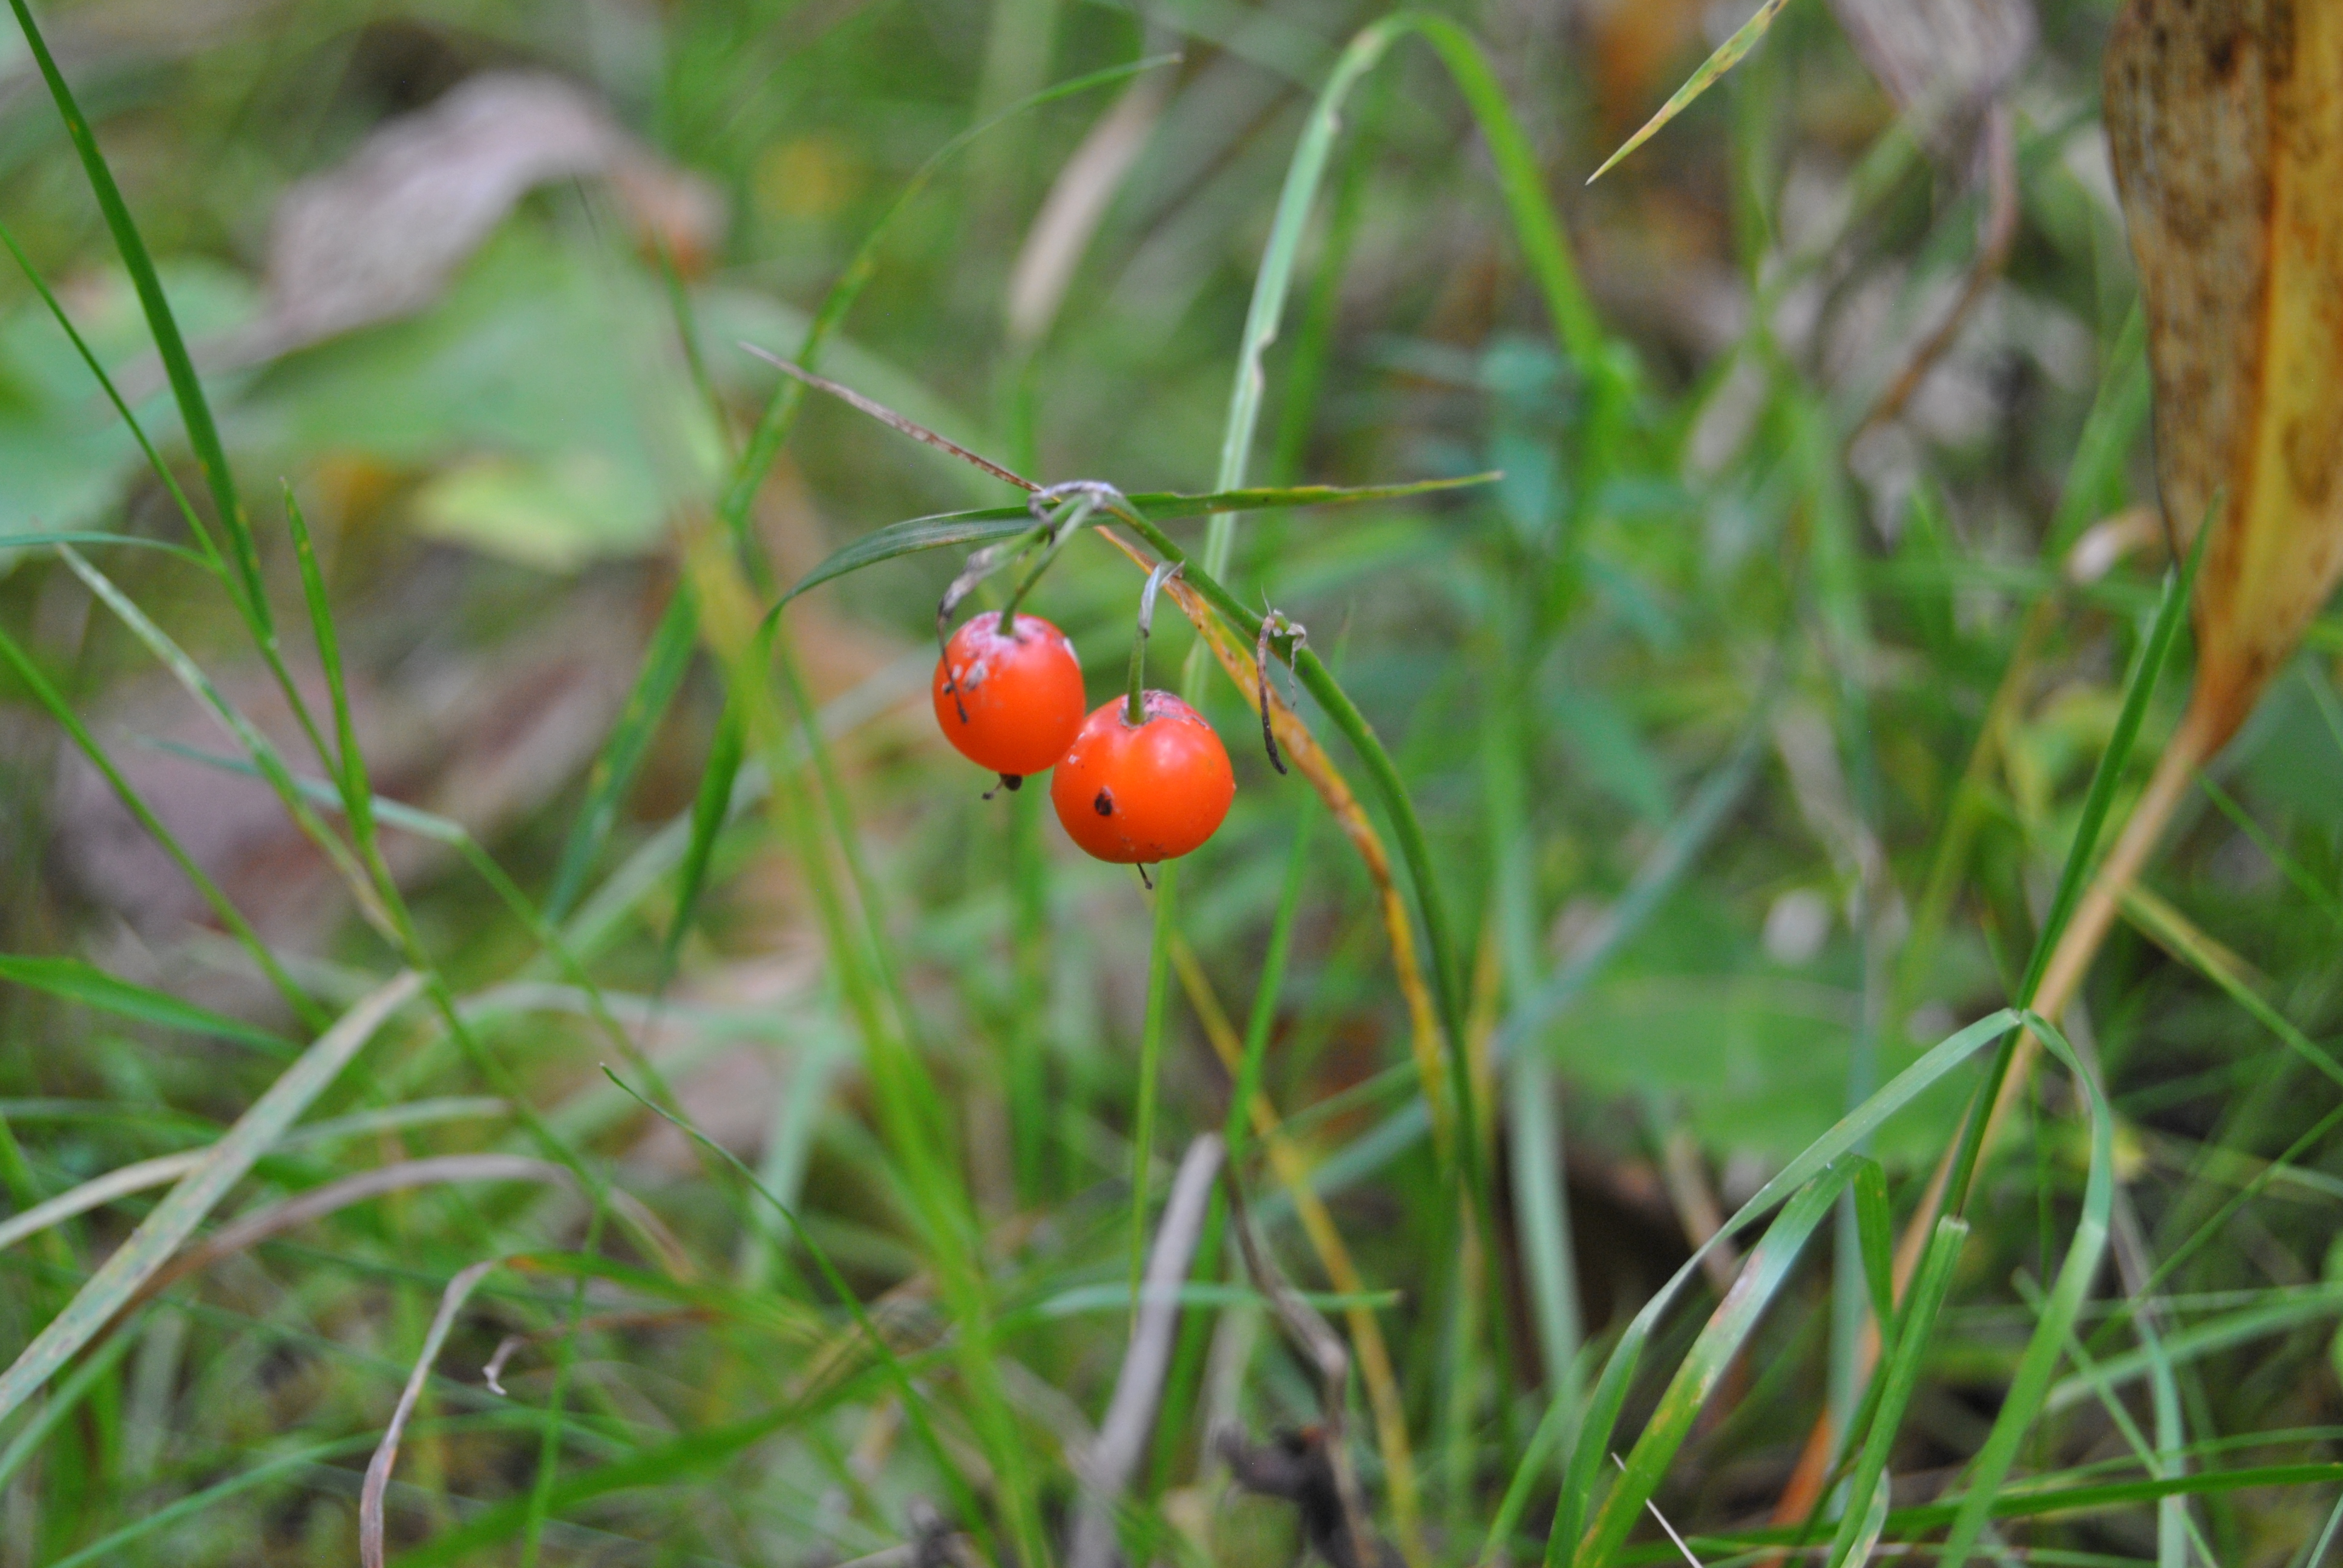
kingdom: Plantae
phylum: Tracheophyta
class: Liliopsida
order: Asparagales
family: Asparagaceae
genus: Convallaria
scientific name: Convallaria majalis
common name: Lily-of-the-valley
